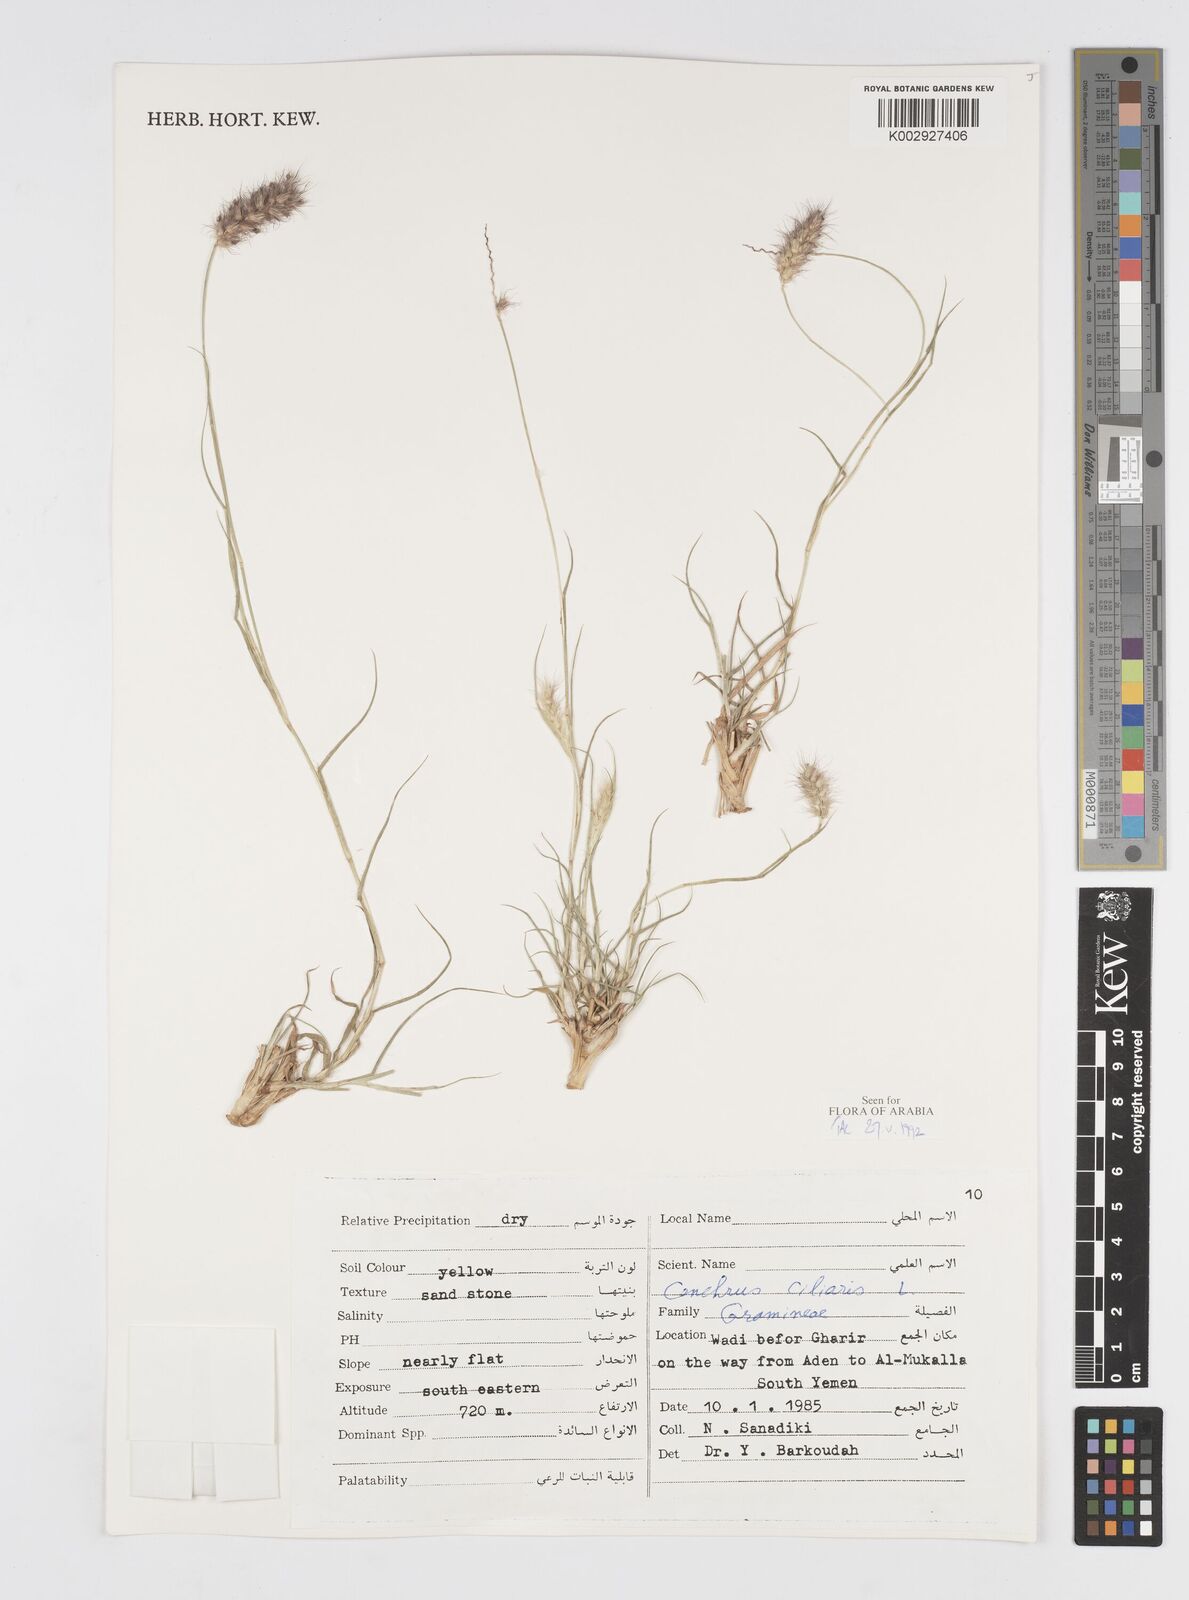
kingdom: Plantae
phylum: Tracheophyta
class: Liliopsida
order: Poales
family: Poaceae
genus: Cenchrus
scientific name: Cenchrus ciliaris
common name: Buffelgrass
